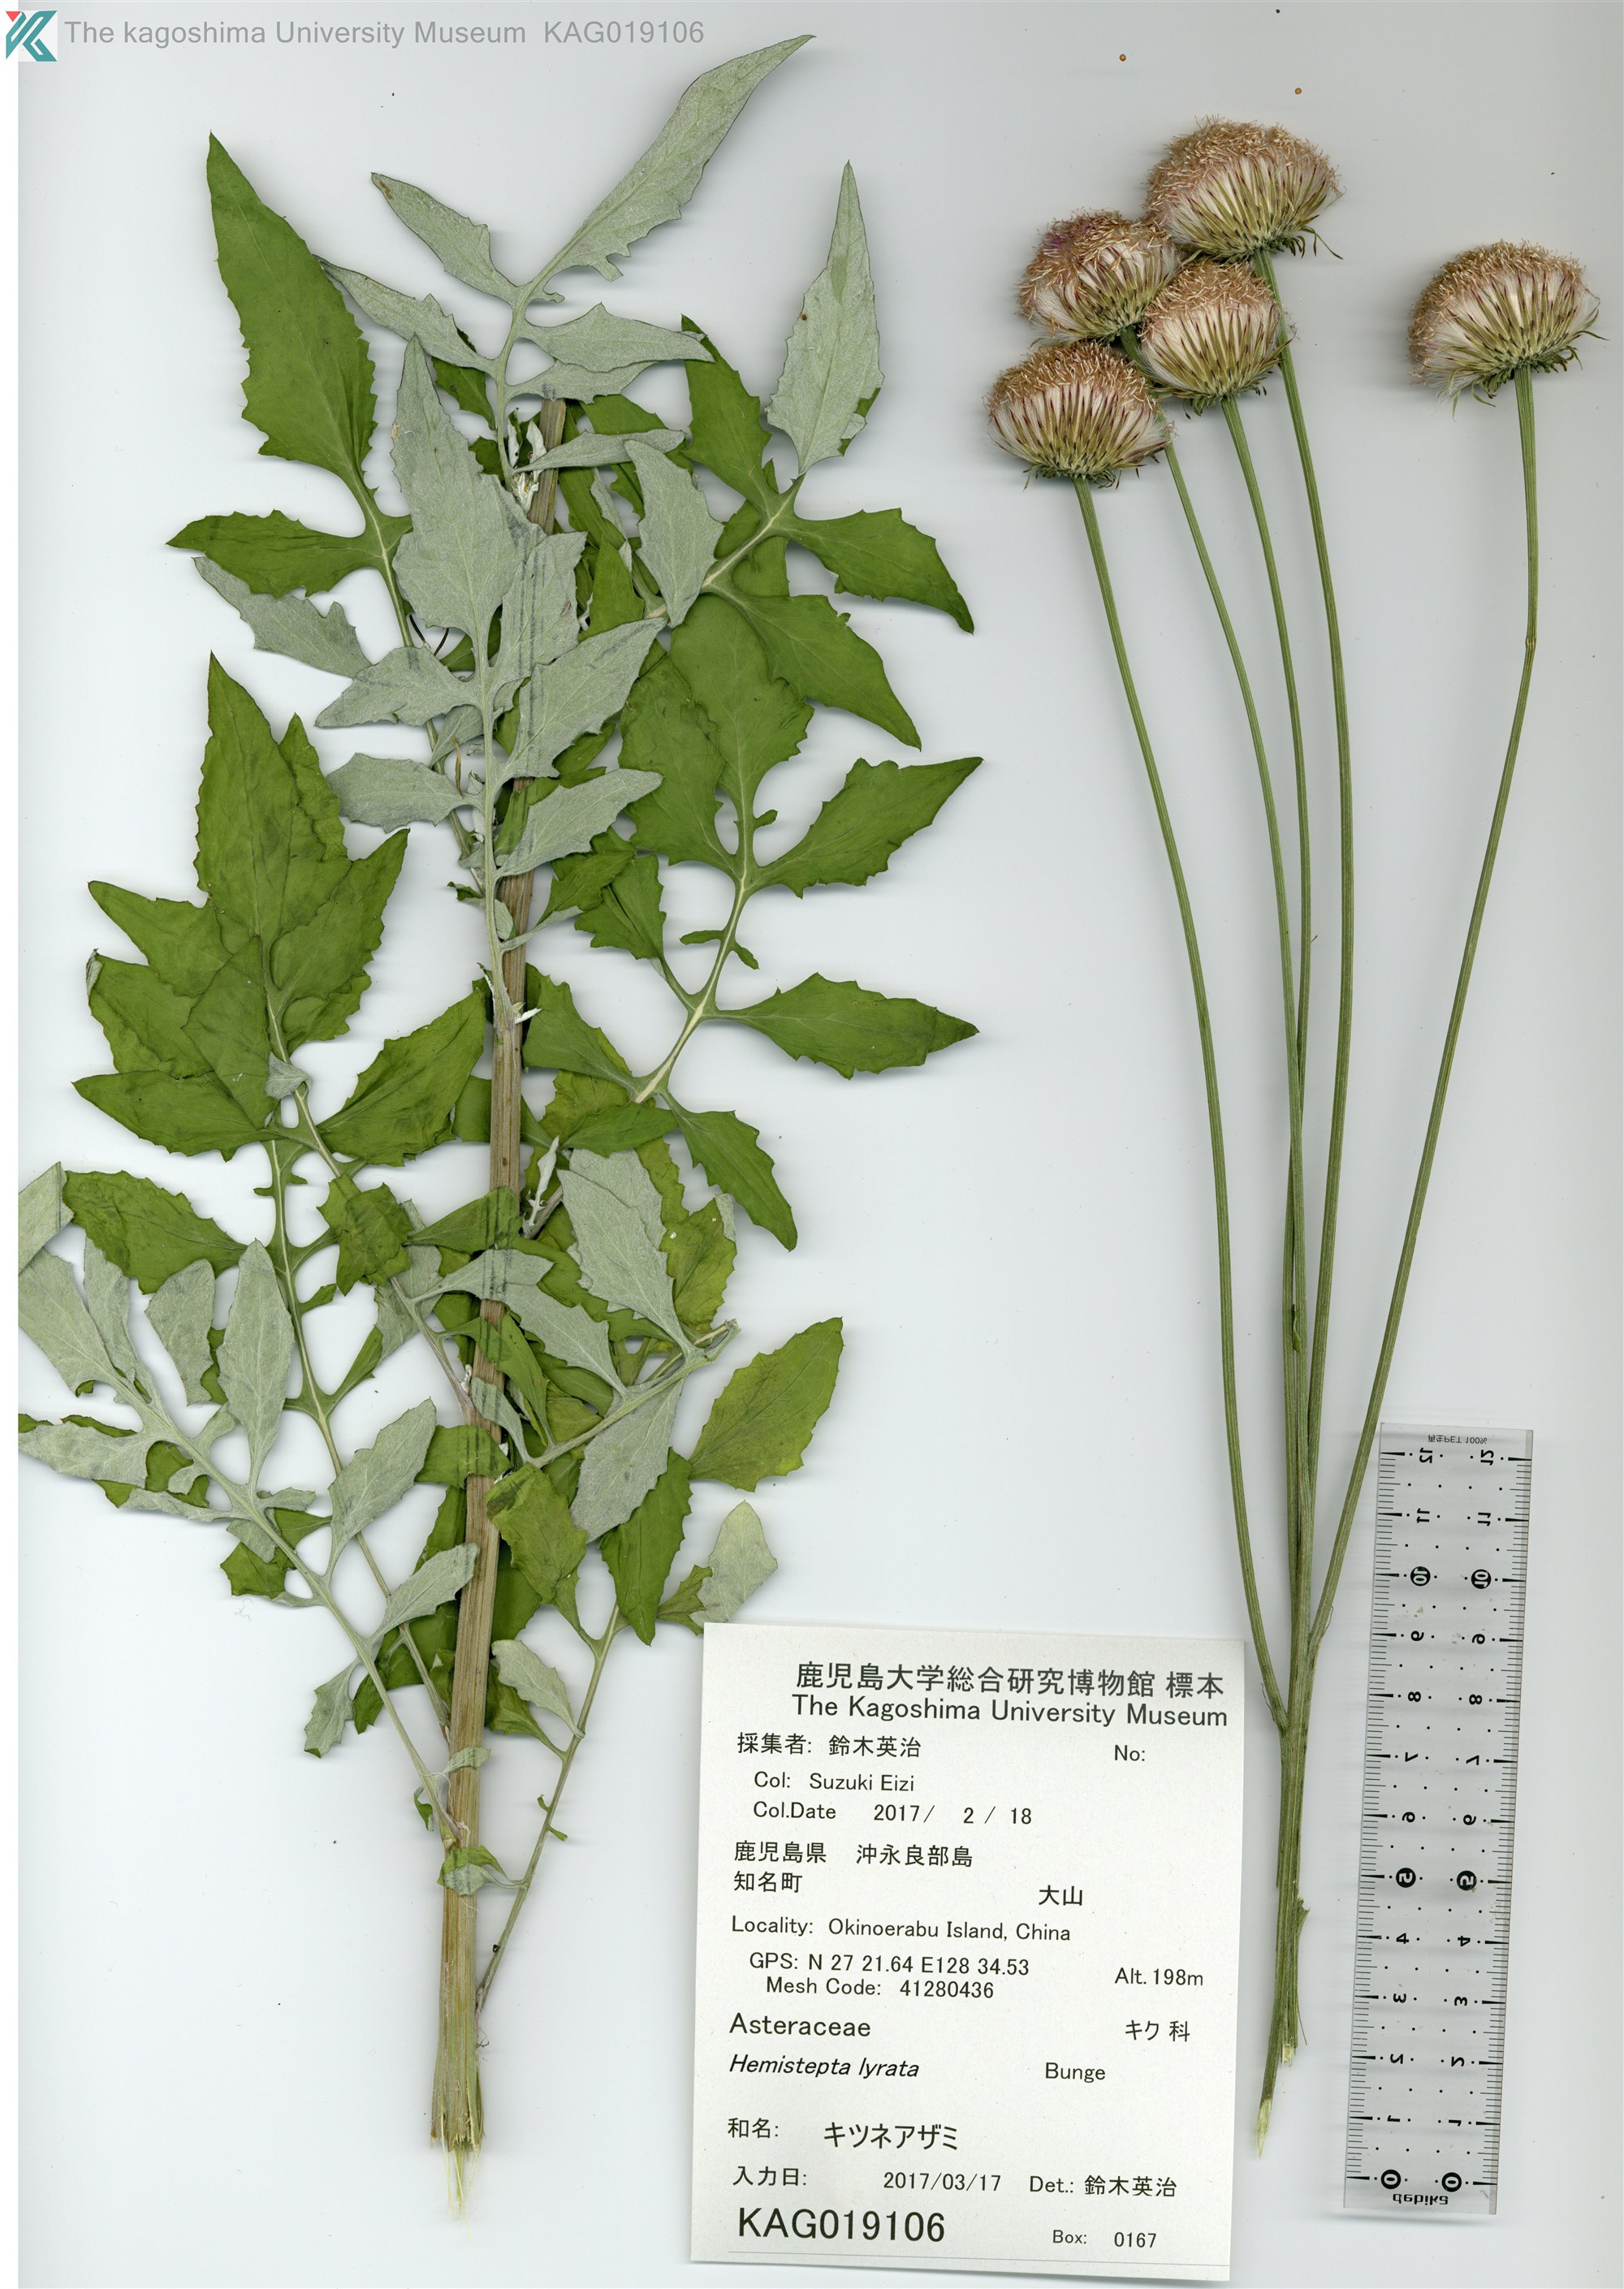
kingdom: Plantae
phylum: Tracheophyta
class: Magnoliopsida
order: Asterales
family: Asteraceae
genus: Saussurea
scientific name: Saussurea lyrata
